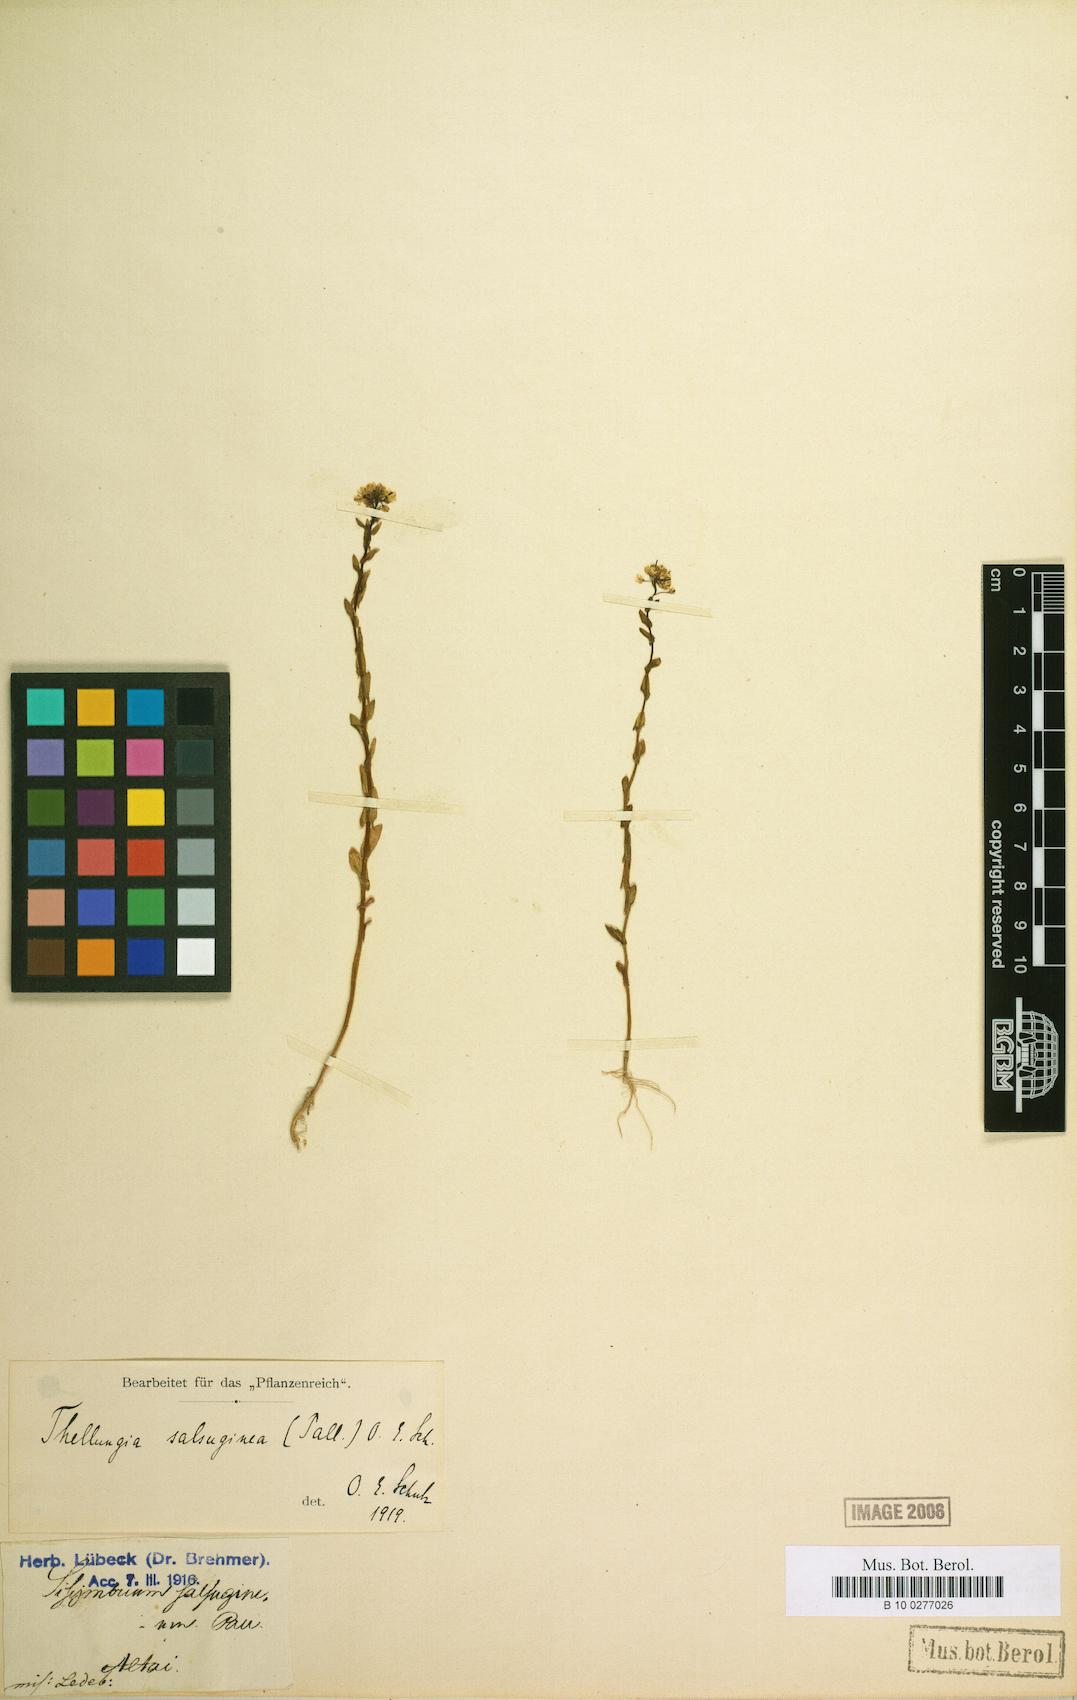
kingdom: Plantae
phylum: Tracheophyta
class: Magnoliopsida
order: Brassicales
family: Brassicaceae
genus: Eutrema
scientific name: Eutrema salsugineum
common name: Mouse-ear cress
